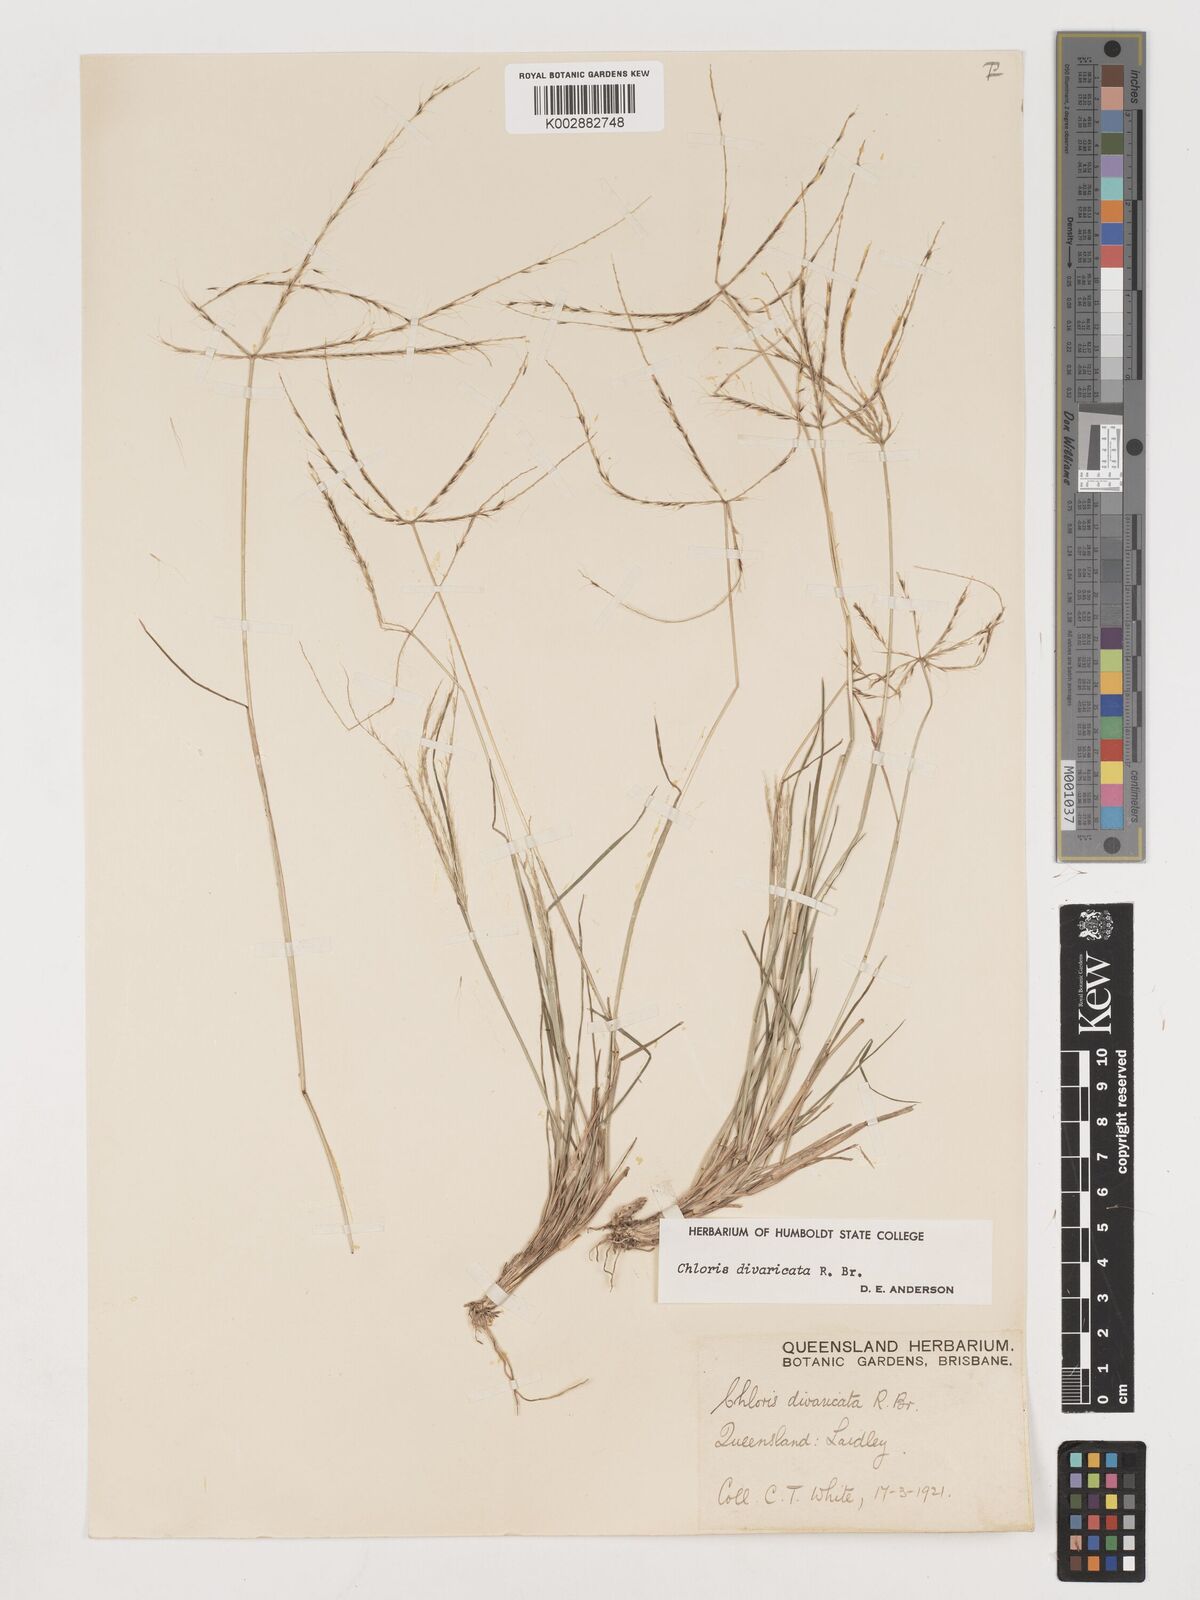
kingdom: Plantae
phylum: Tracheophyta
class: Liliopsida
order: Poales
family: Poaceae
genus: Chloris
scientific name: Chloris divaricata
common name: Spreading windmill grass
